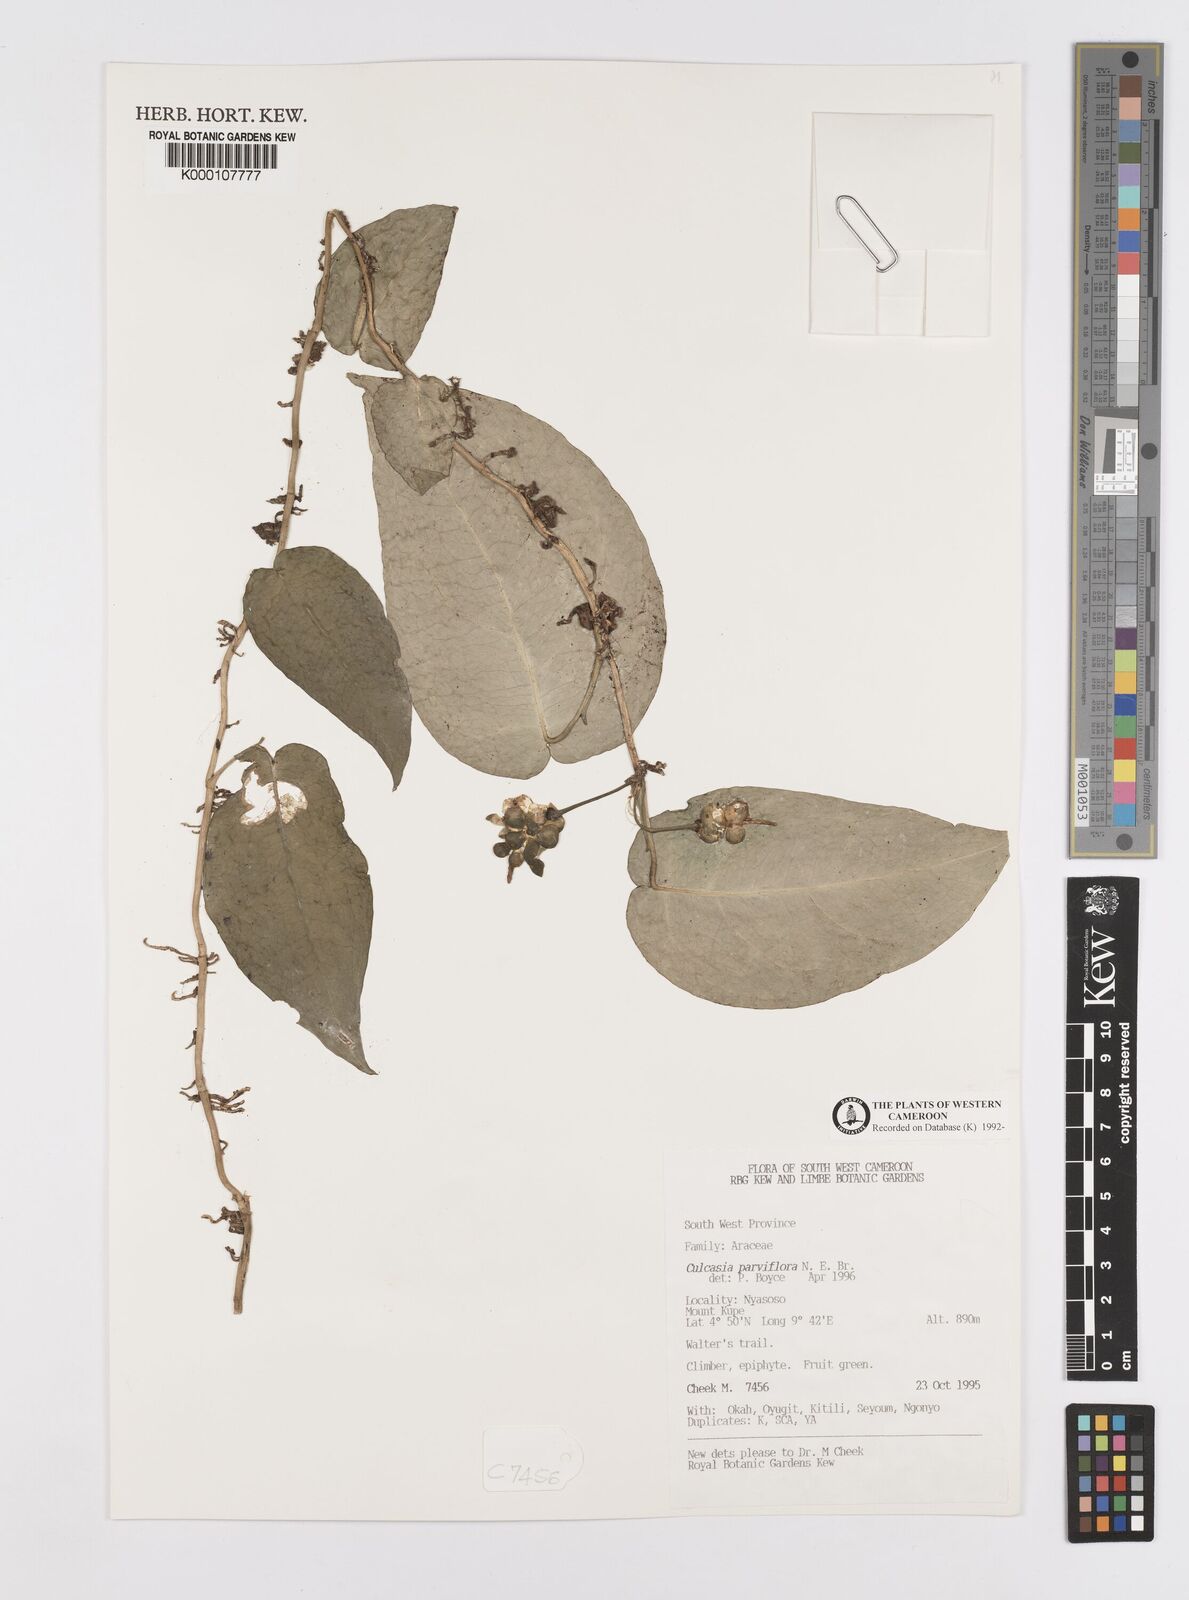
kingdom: Plantae
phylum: Tracheophyta
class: Liliopsida
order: Alismatales
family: Araceae
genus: Culcasia
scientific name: Culcasia parviflora
